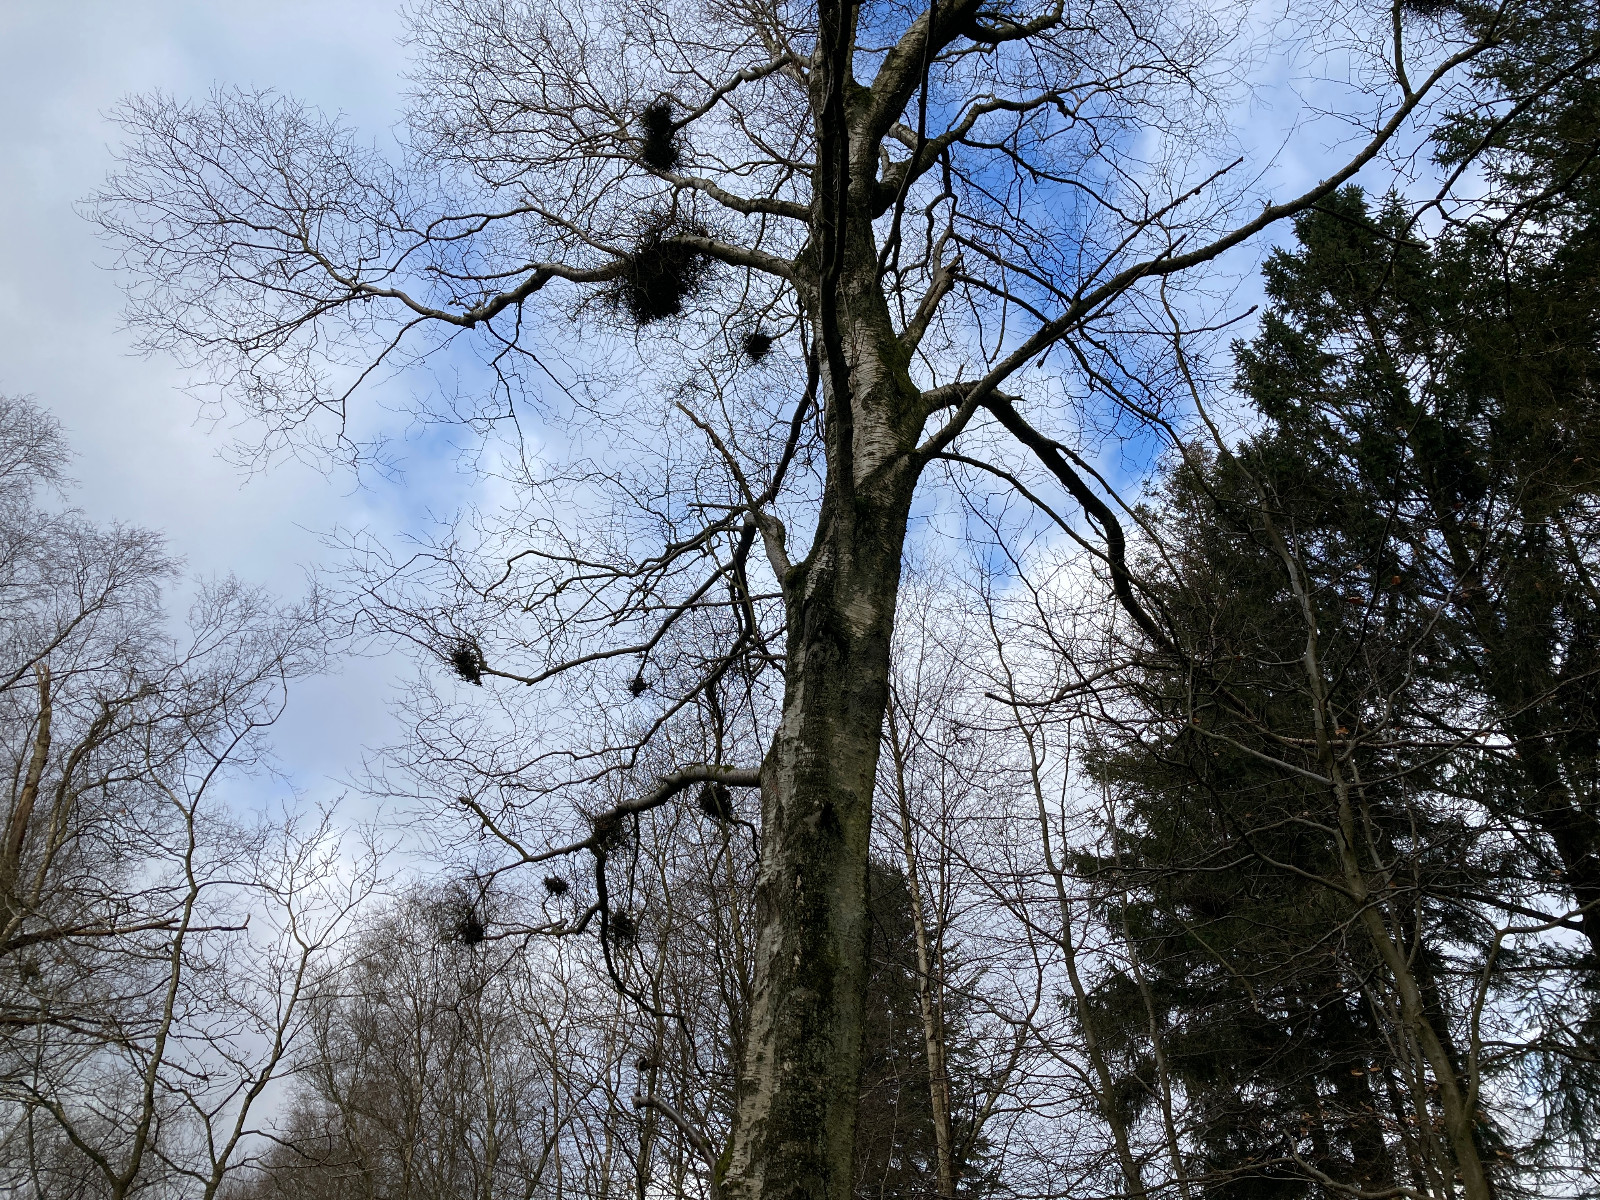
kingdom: Fungi
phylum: Ascomycota
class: Taphrinomycetes
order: Taphrinales
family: Taphrinaceae
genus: Taphrina
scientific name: Taphrina betulina
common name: hekse-sækdug
